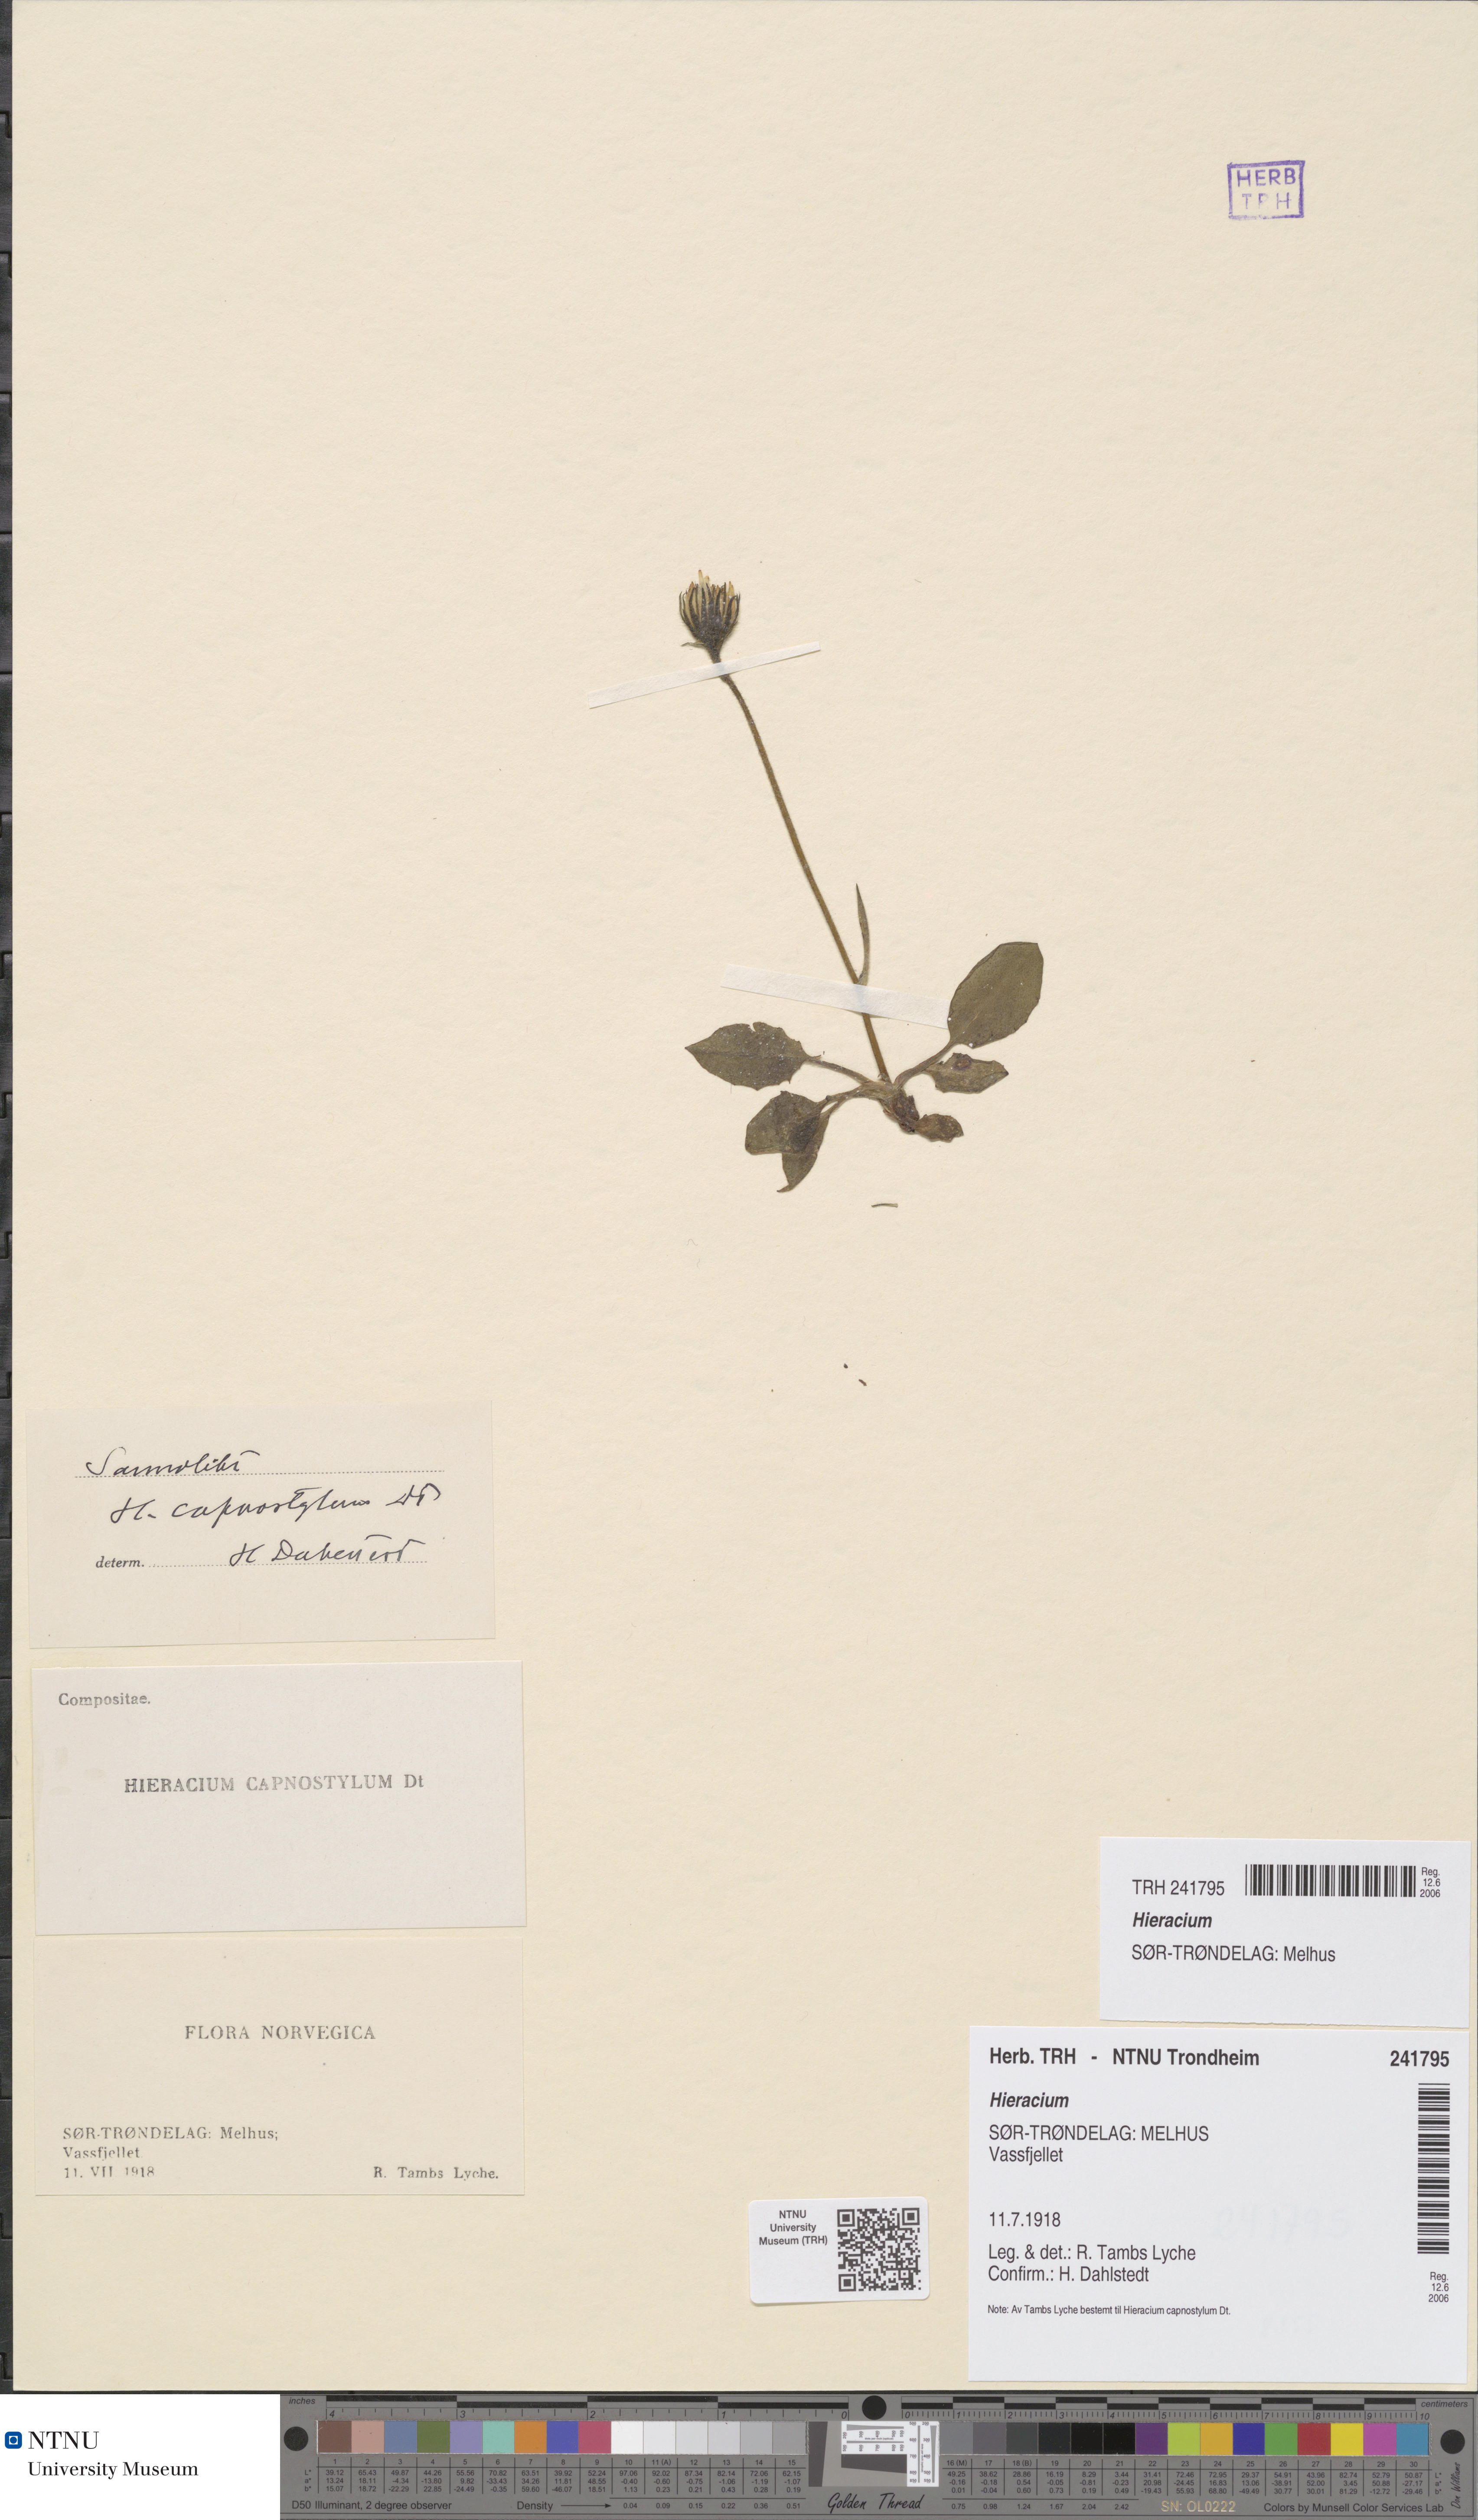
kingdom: Plantae
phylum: Tracheophyta
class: Magnoliopsida
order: Asterales
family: Asteraceae
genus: Hieracium
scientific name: Hieracium
